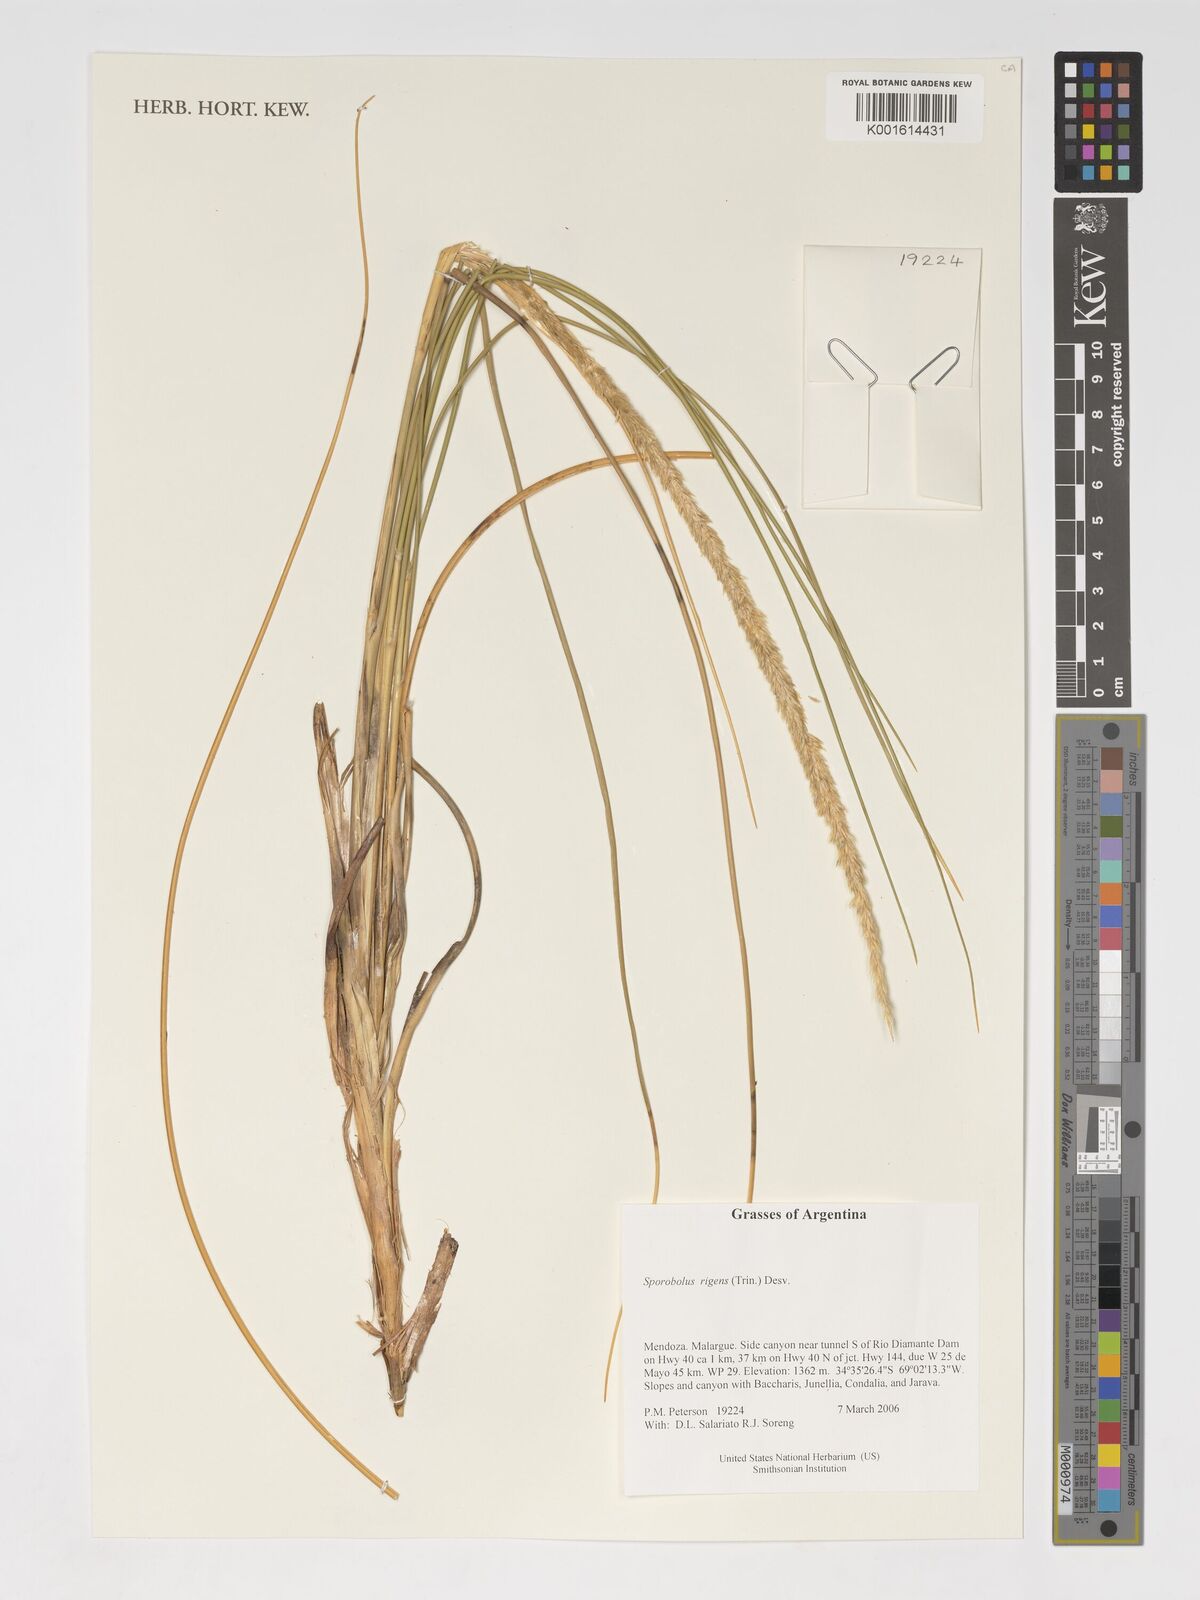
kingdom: Plantae
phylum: Tracheophyta
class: Liliopsida
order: Poales
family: Poaceae
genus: Sporobolus
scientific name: Sporobolus rigens
